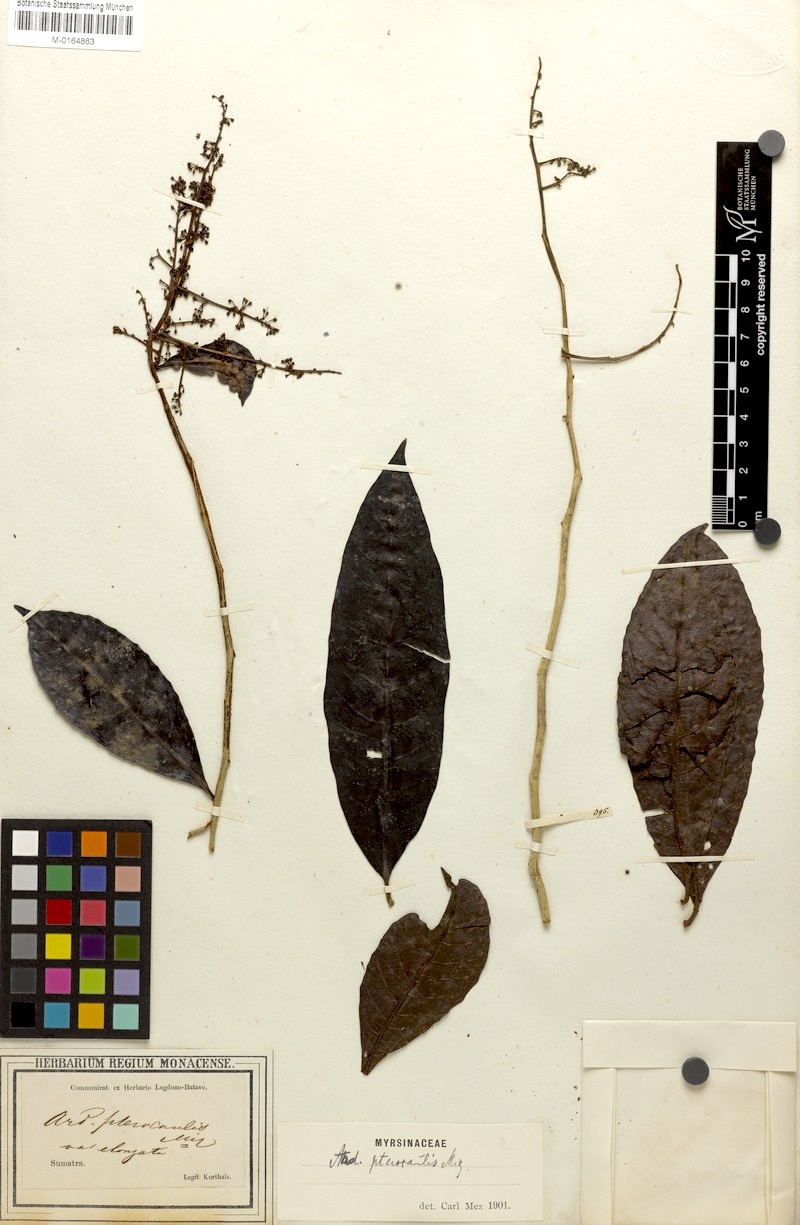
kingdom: Plantae
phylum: Tracheophyta
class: Magnoliopsida
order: Ericales
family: Primulaceae
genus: Ardisia
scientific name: Ardisia pterocaulis
